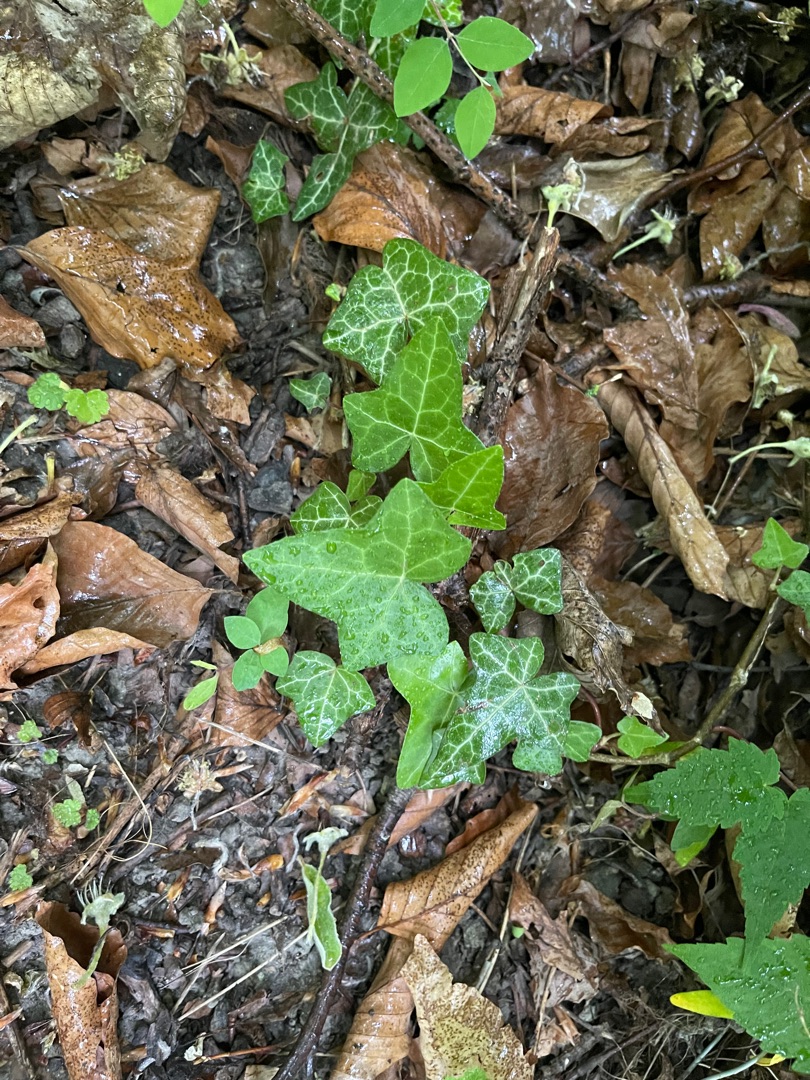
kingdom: Plantae
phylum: Tracheophyta
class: Magnoliopsida
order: Apiales
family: Araliaceae
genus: Hedera
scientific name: Hedera helix
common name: Vedbend
